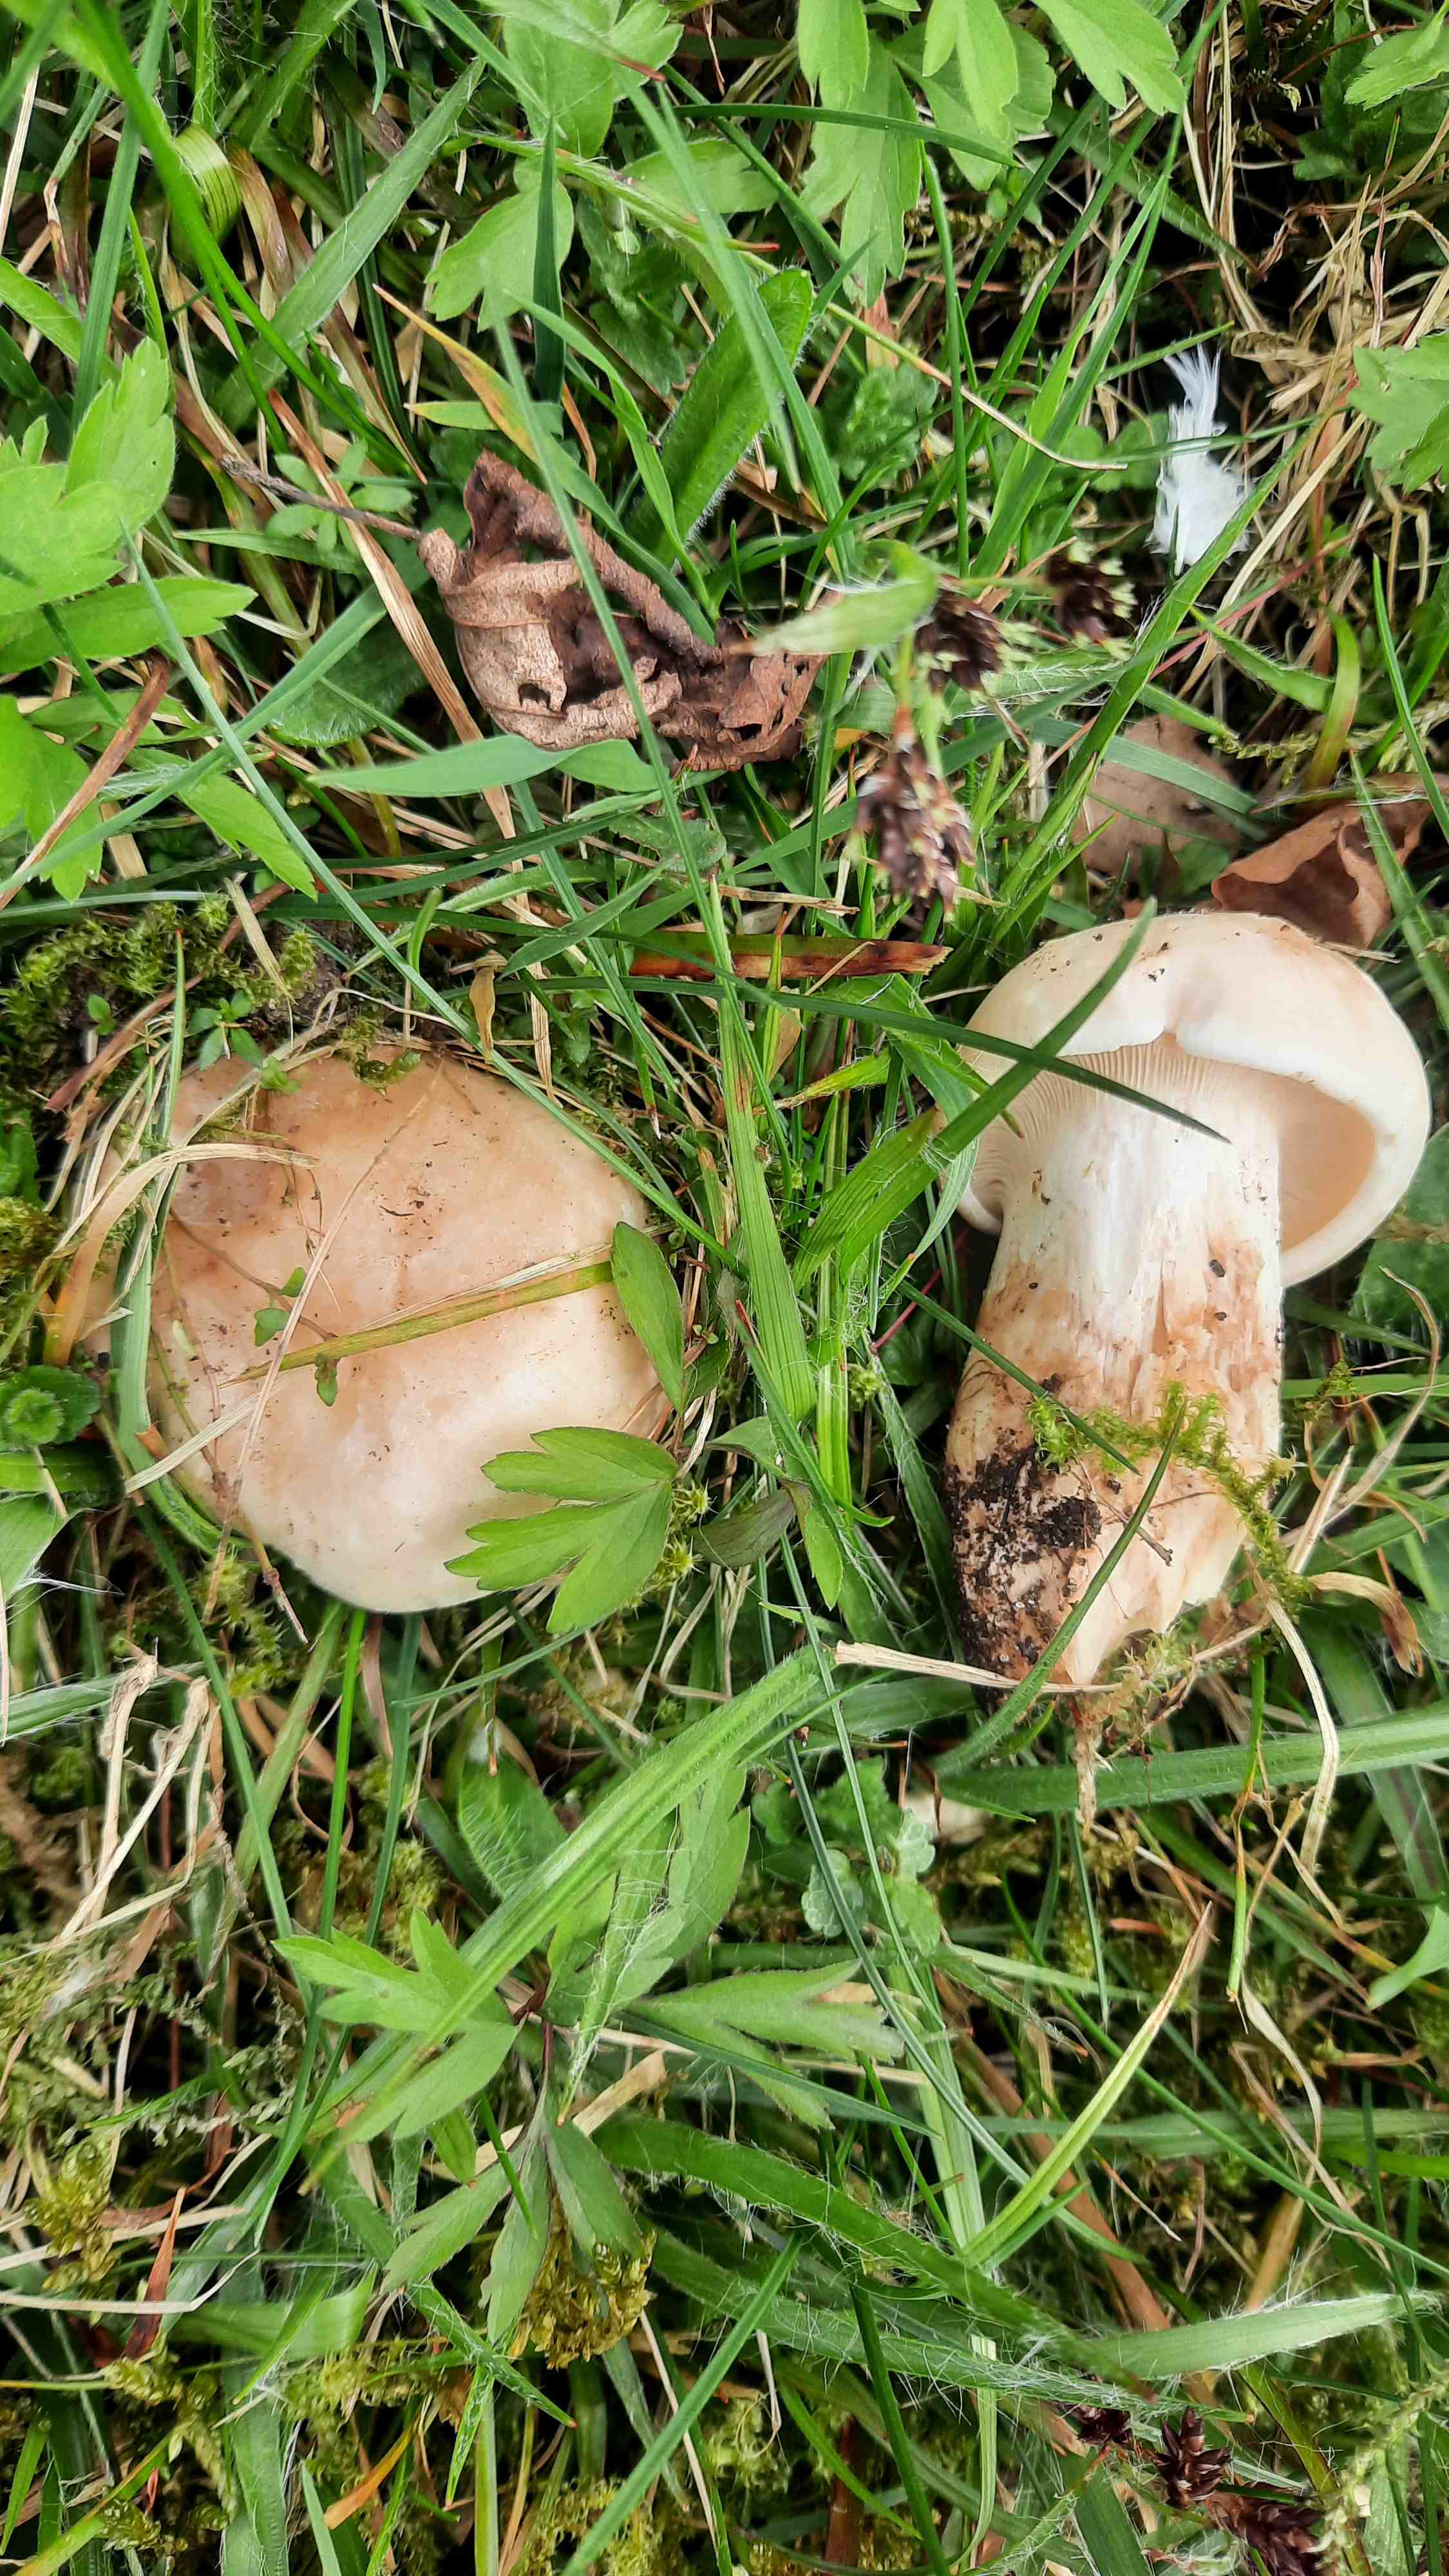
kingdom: Fungi
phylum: Basidiomycota
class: Agaricomycetes
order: Agaricales
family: Lyophyllaceae
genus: Calocybe
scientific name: Calocybe gambosa
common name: vårmusseron
